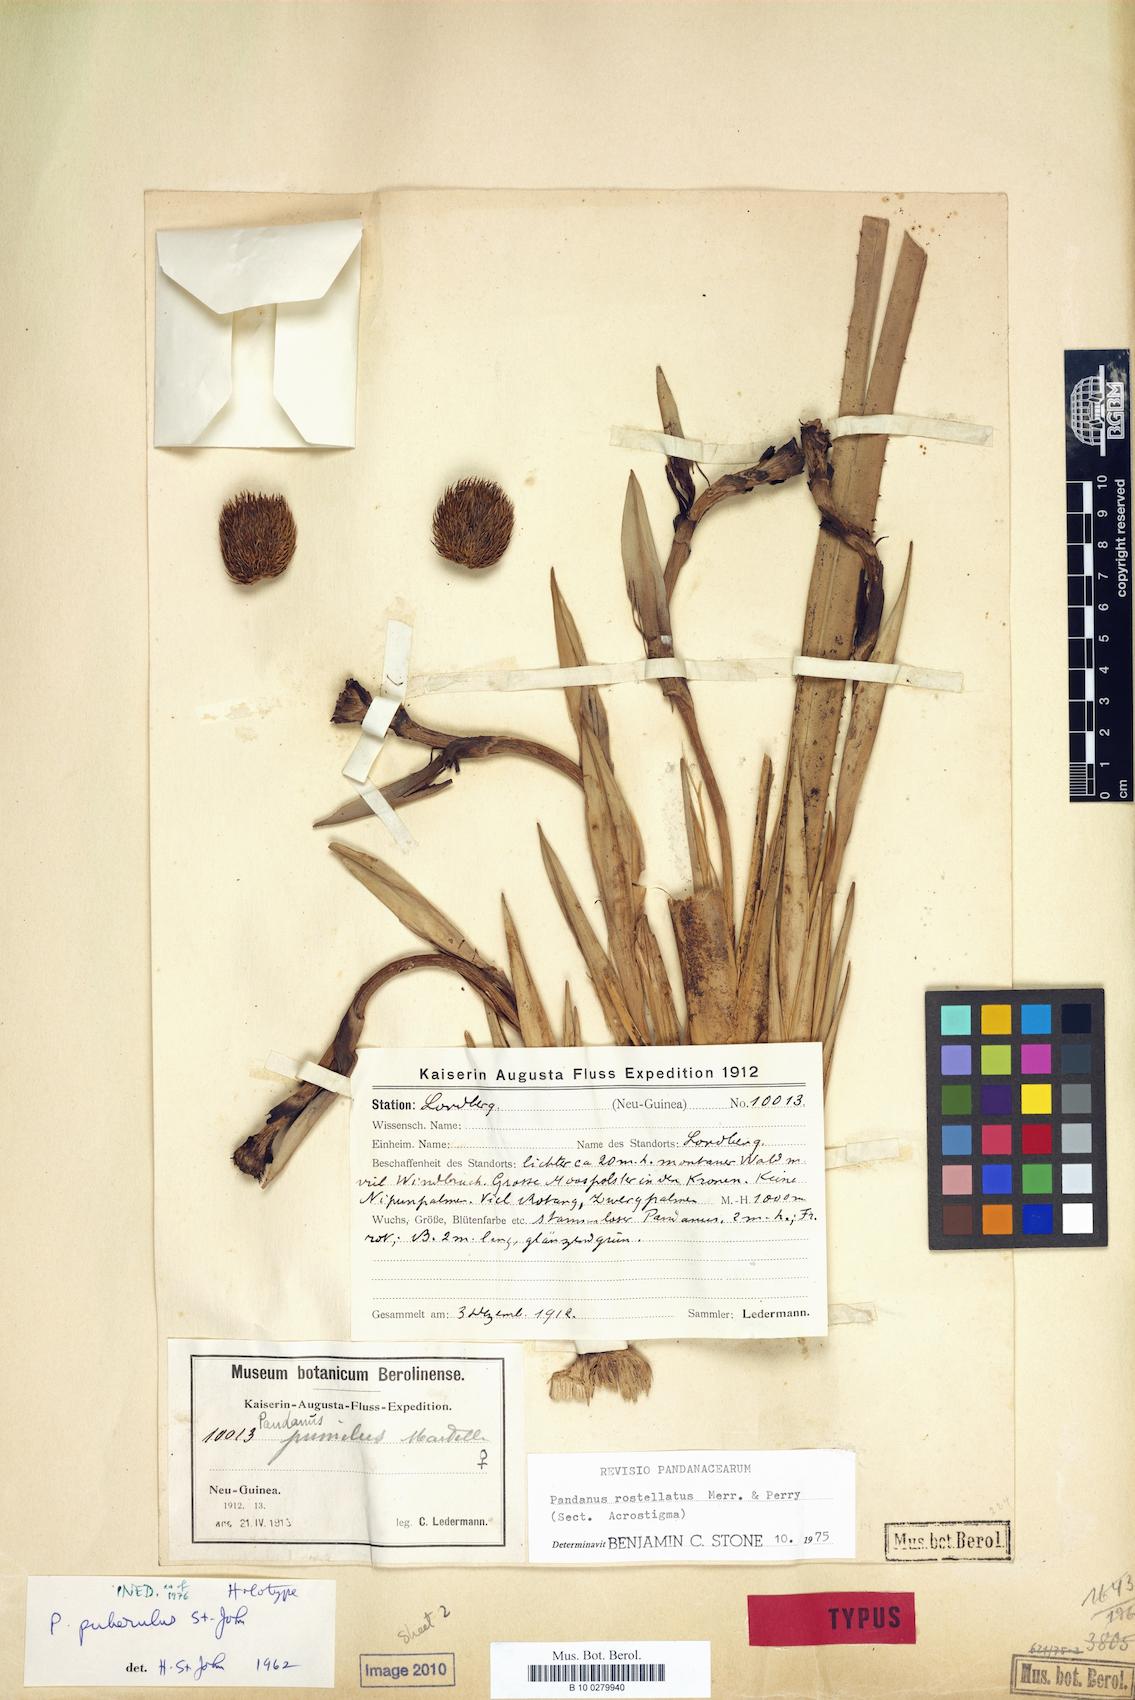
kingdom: Plantae
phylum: Tracheophyta
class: Liliopsida
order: Pandanales
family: Pandanaceae
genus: Benstonea
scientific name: Benstonea rostellata
